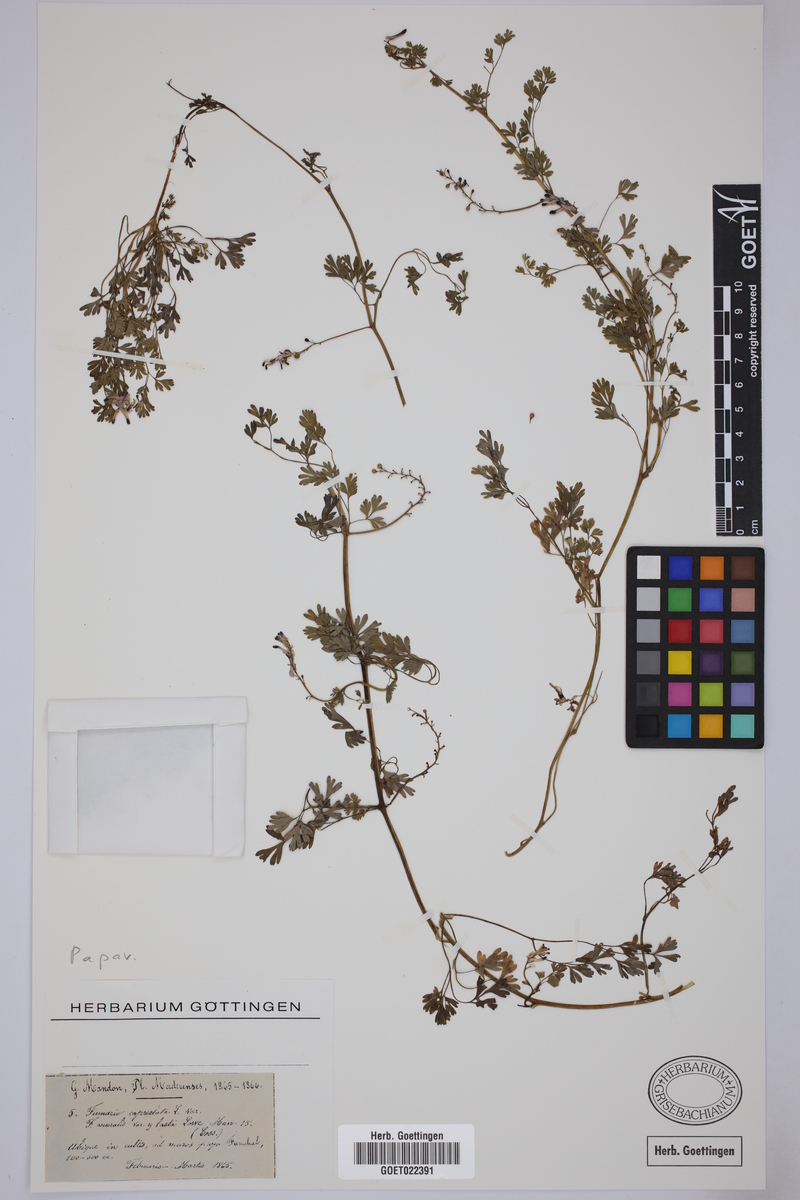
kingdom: Plantae
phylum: Tracheophyta
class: Magnoliopsida
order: Ranunculales
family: Papaveraceae
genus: Fumaria
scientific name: Fumaria capreolata
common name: White ramping-fumitory
